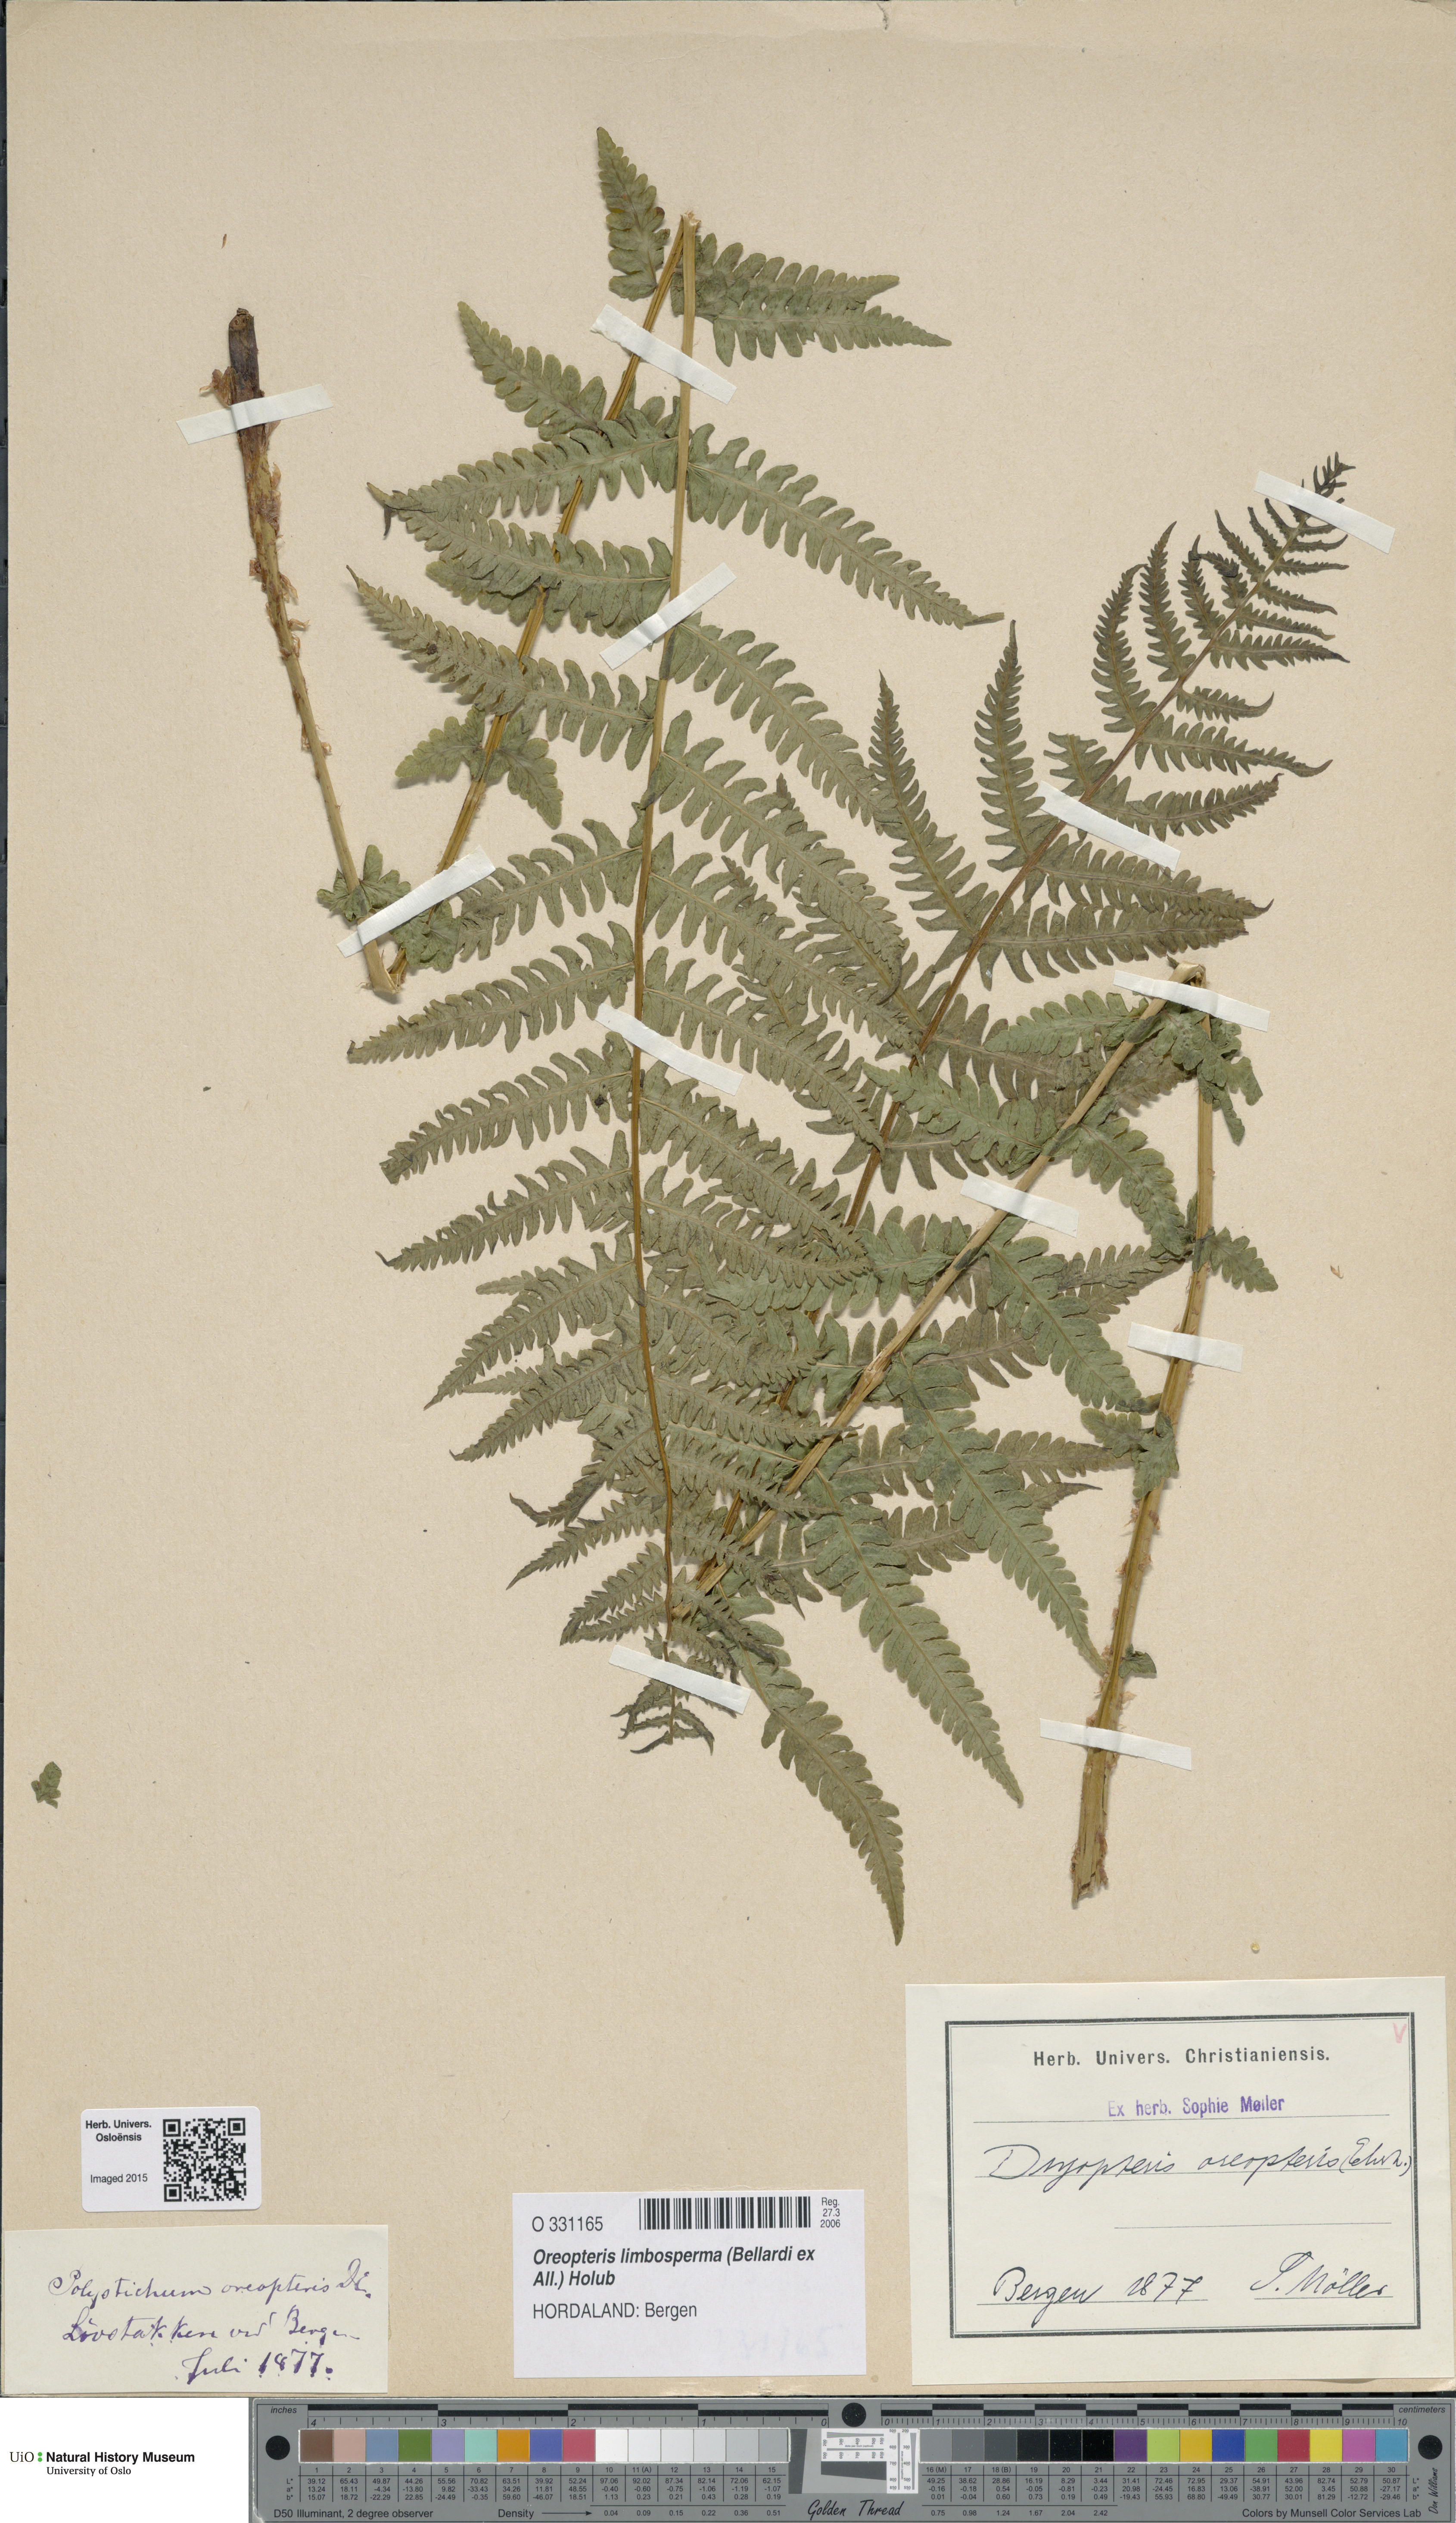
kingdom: Plantae
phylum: Tracheophyta
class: Polypodiopsida
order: Polypodiales
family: Thelypteridaceae
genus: Oreopteris
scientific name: Oreopteris limbosperma
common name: Lemon-scented fern
